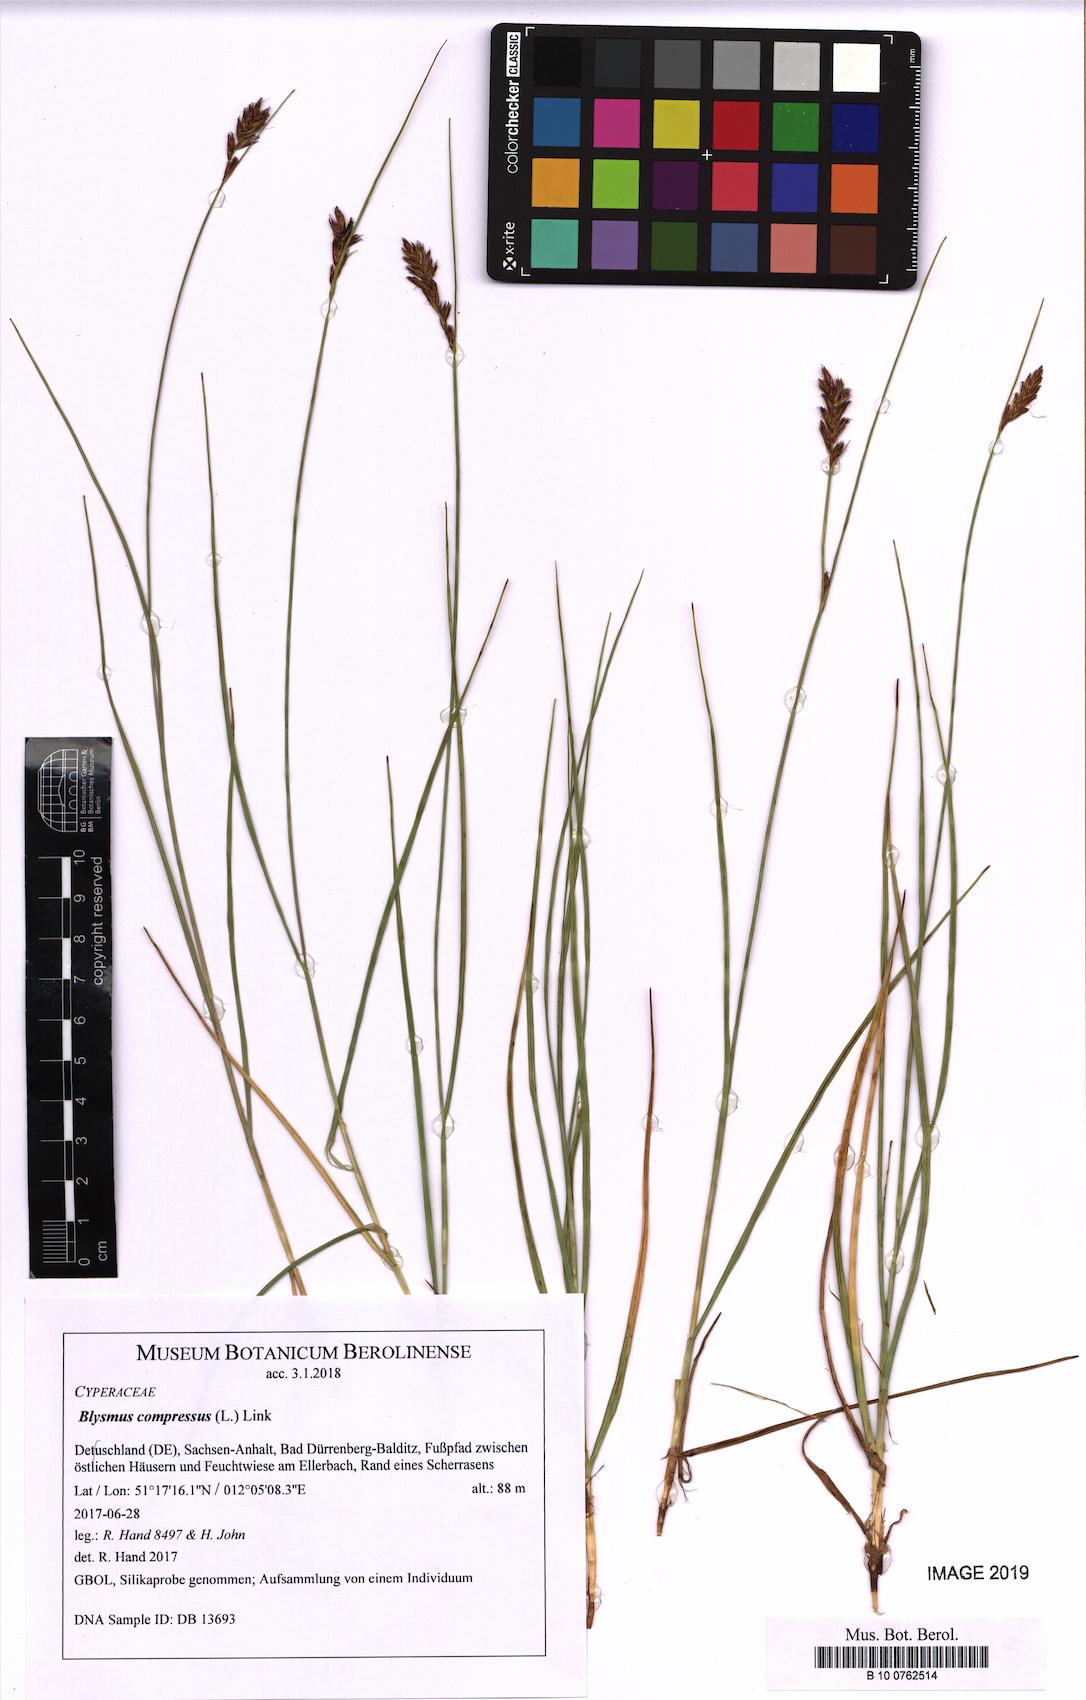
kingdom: Plantae
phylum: Tracheophyta
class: Liliopsida
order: Poales
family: Cyperaceae
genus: Blysmus
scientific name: Blysmus compressus
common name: Flat-sedge
